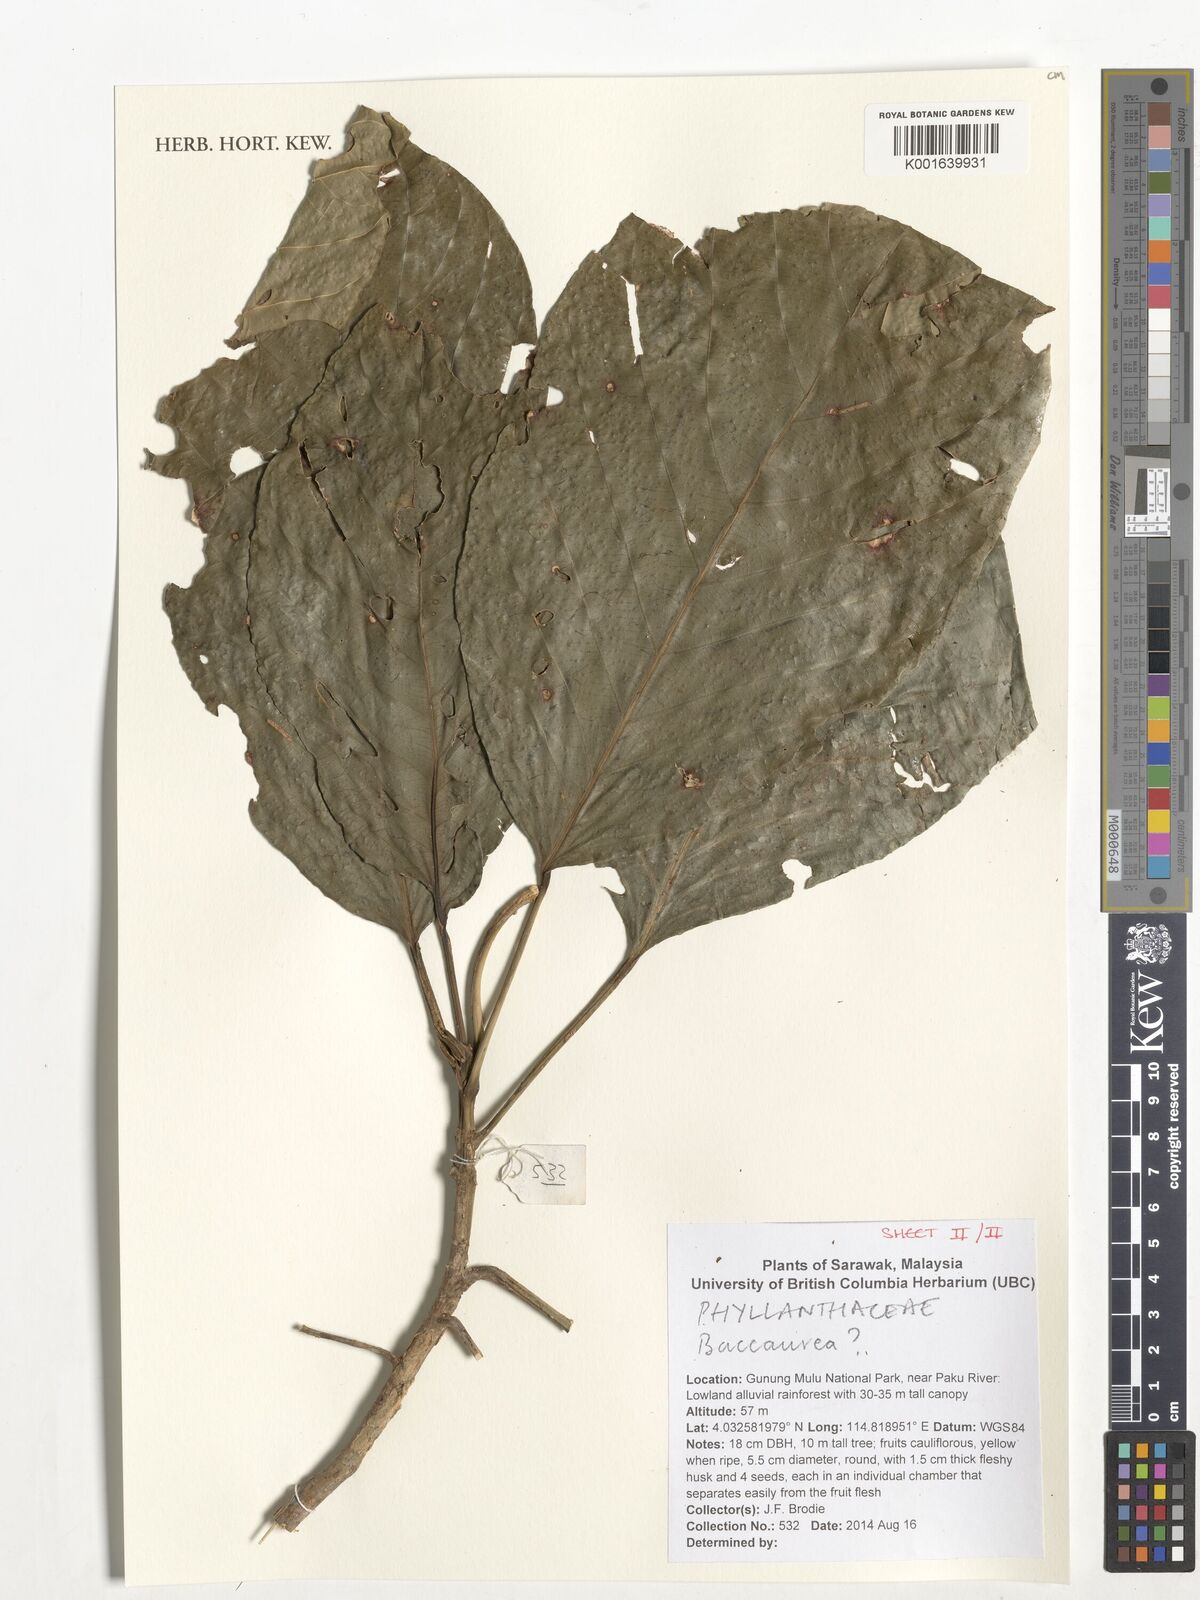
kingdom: Plantae
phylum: Tracheophyta
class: Magnoliopsida
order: Malpighiales
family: Phyllanthaceae
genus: Baccaurea
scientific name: Baccaurea
